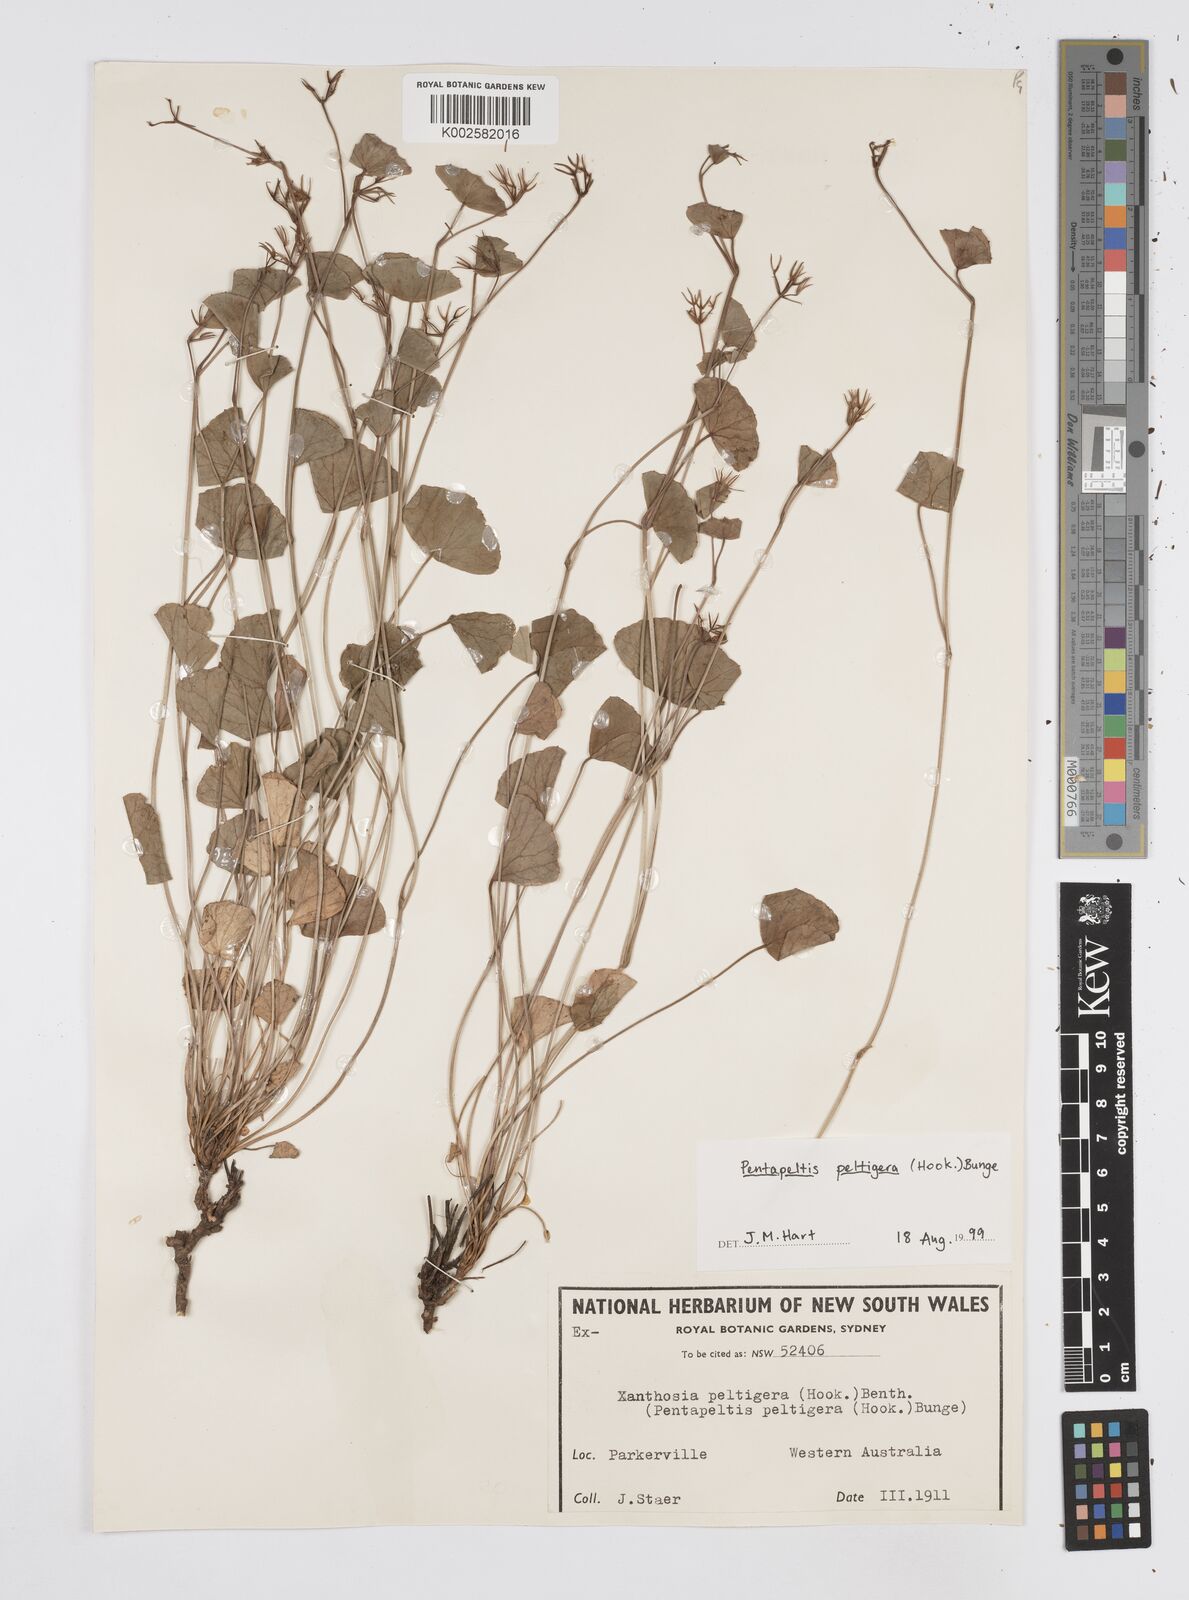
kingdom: Plantae
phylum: Tracheophyta
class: Magnoliopsida
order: Apiales
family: Apiaceae
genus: Pentapeltis
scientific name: Pentapeltis peltigera
